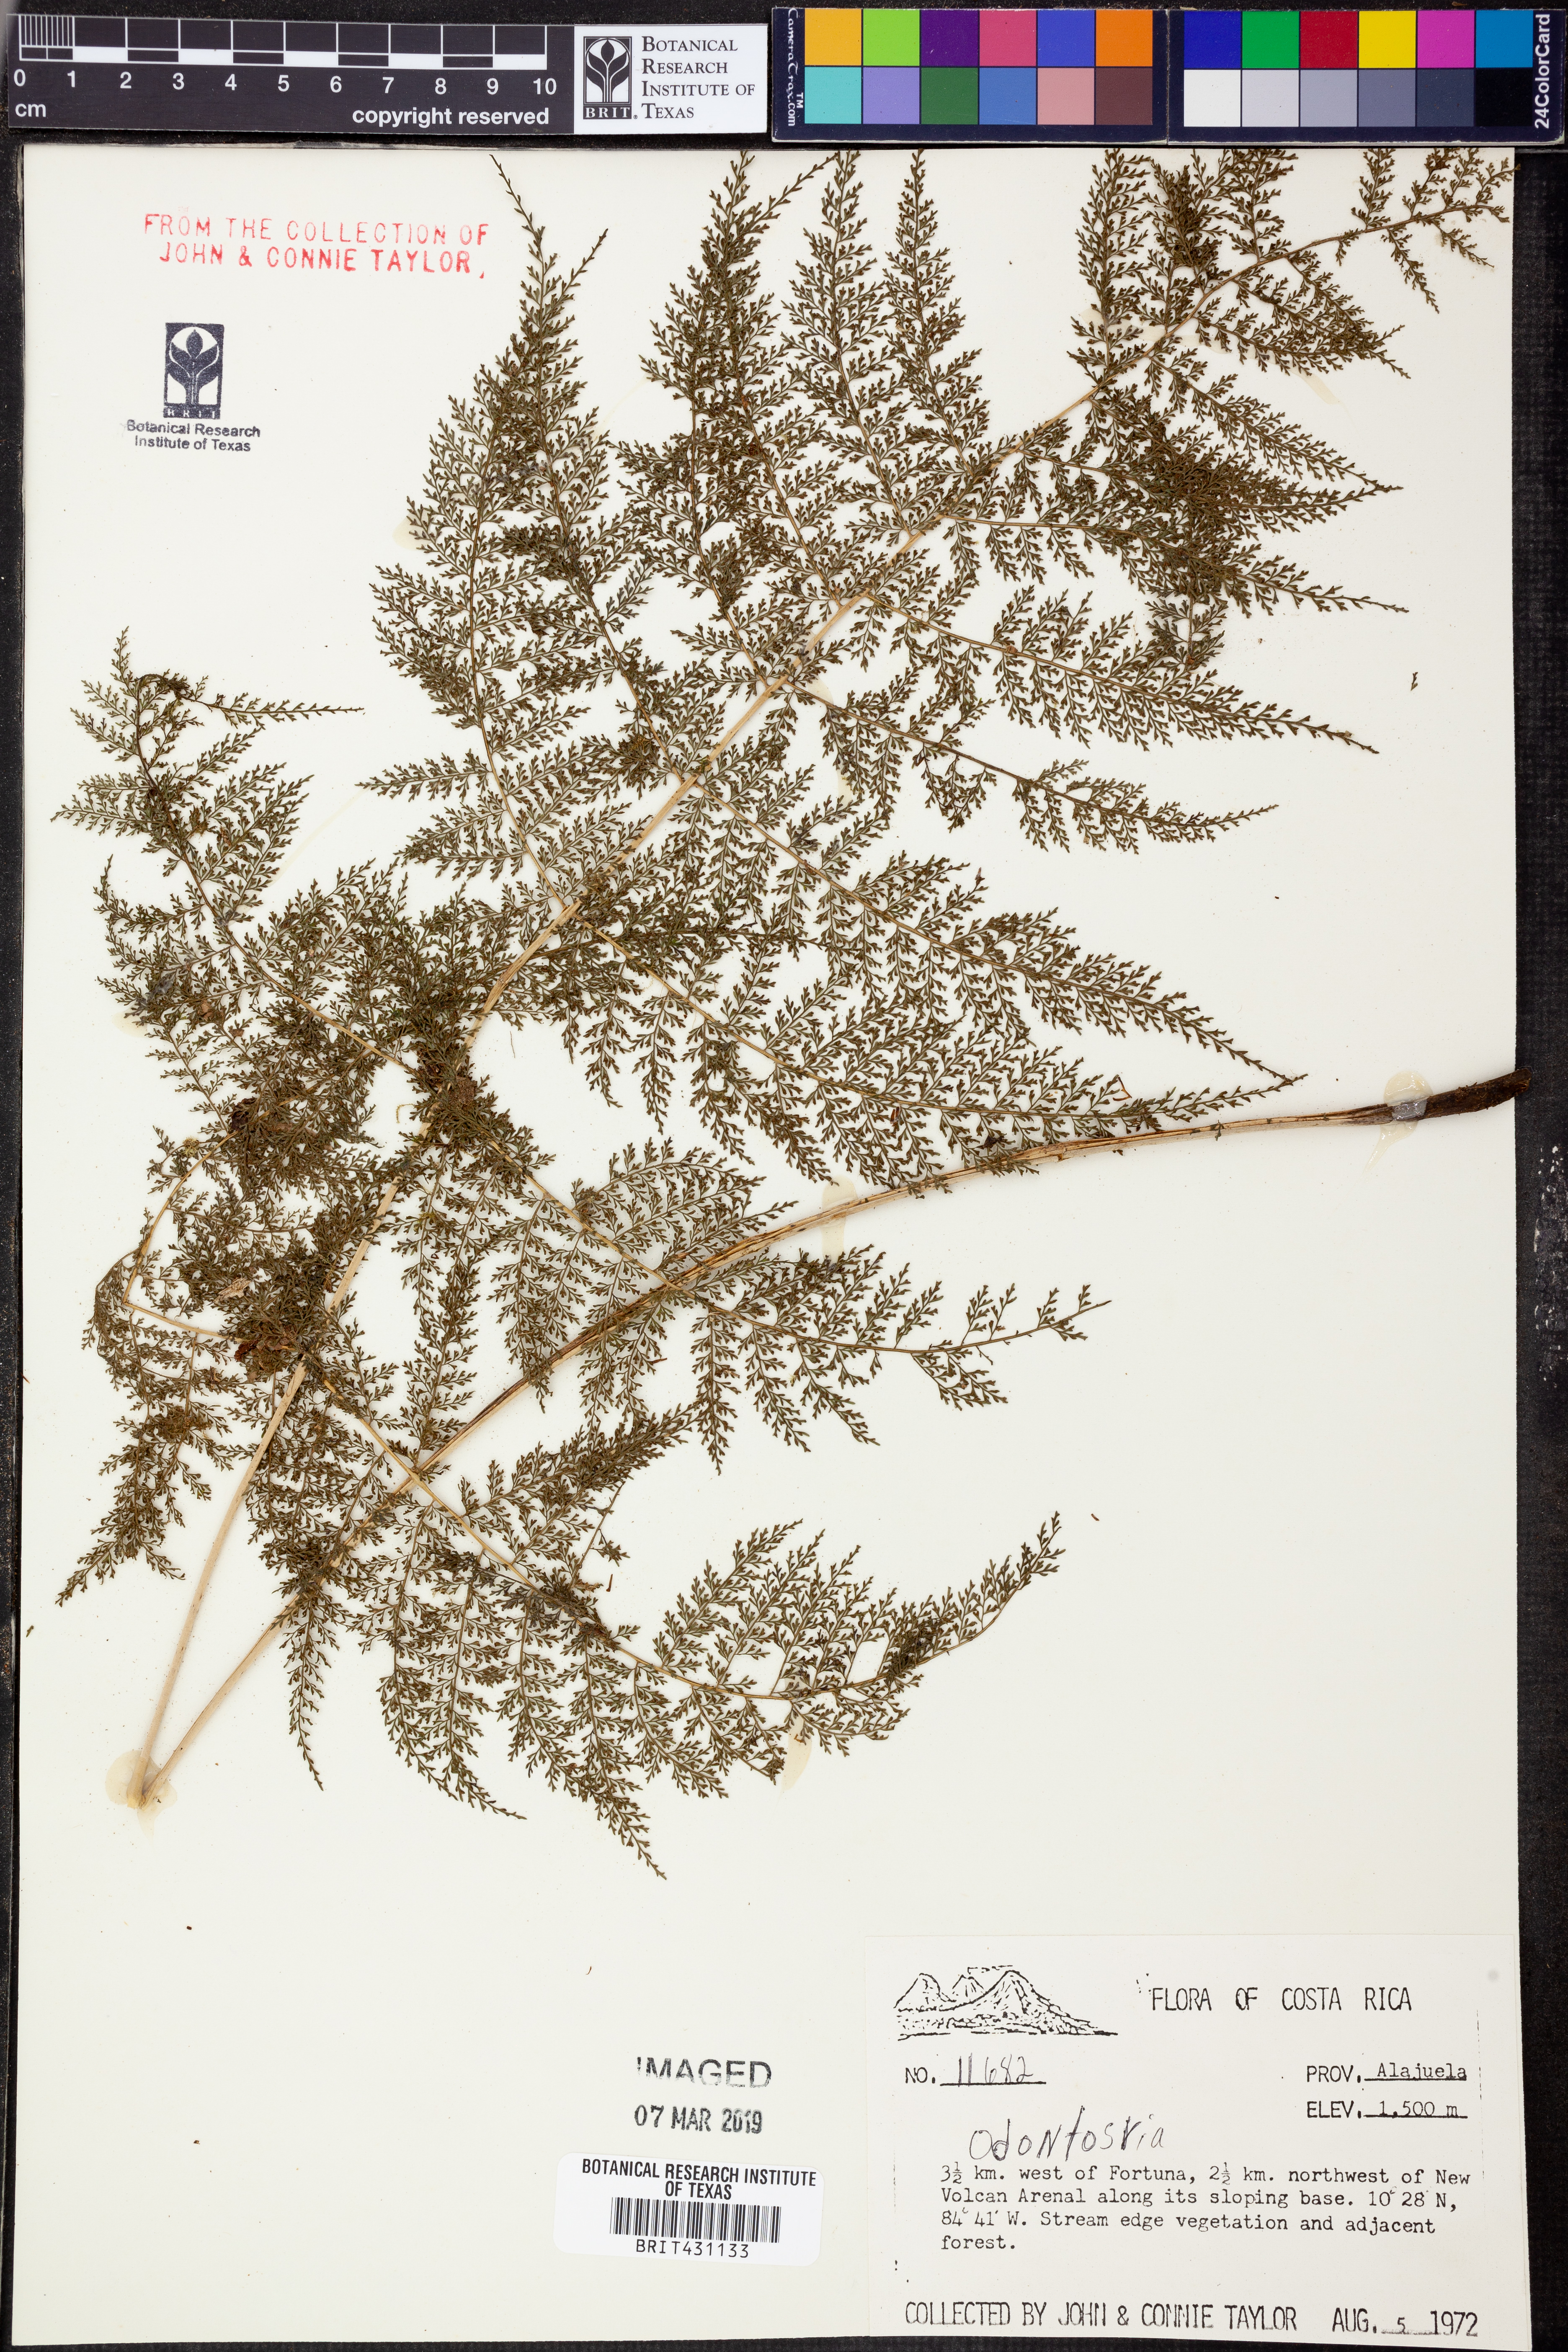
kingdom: Plantae
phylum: Tracheophyta
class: Polypodiopsida
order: Polypodiales
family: Lindsaeaceae
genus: Odontosoria
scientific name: Odontosoria
